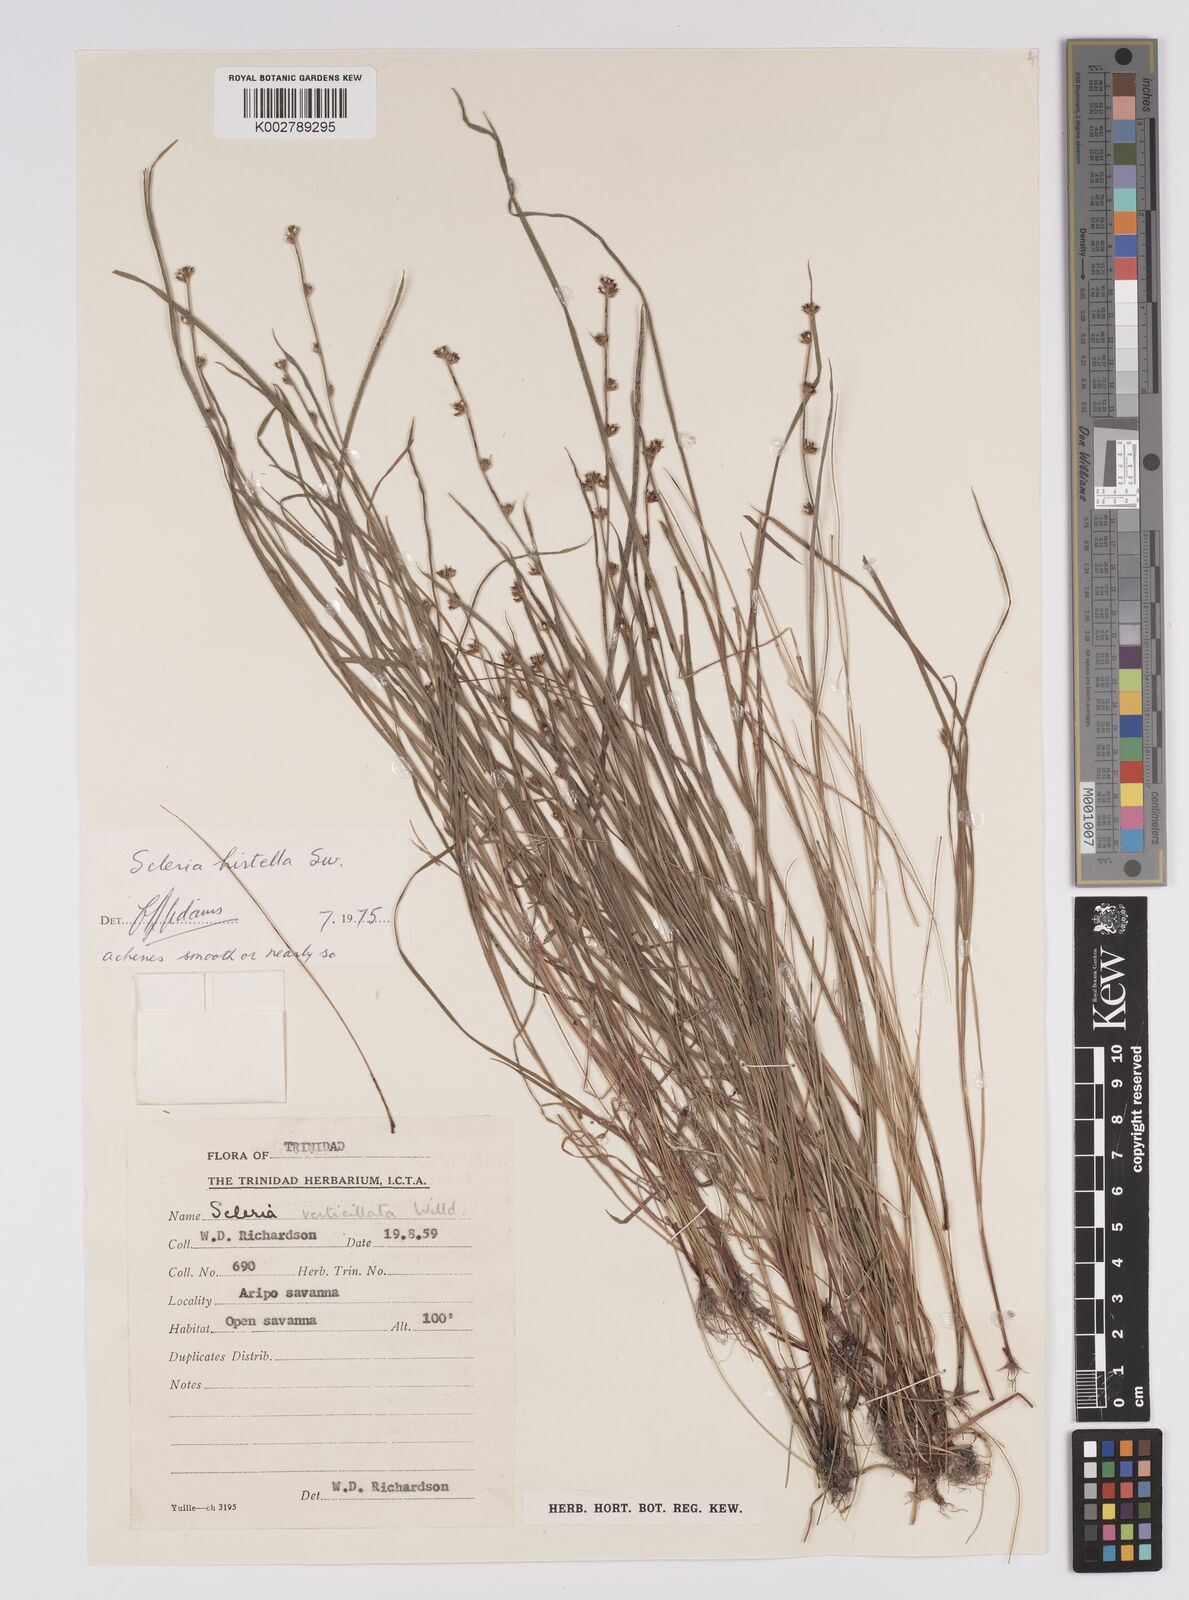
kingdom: Plantae
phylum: Tracheophyta
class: Liliopsida
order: Poales
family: Cyperaceae
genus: Scleria
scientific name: Scleria hirtella
